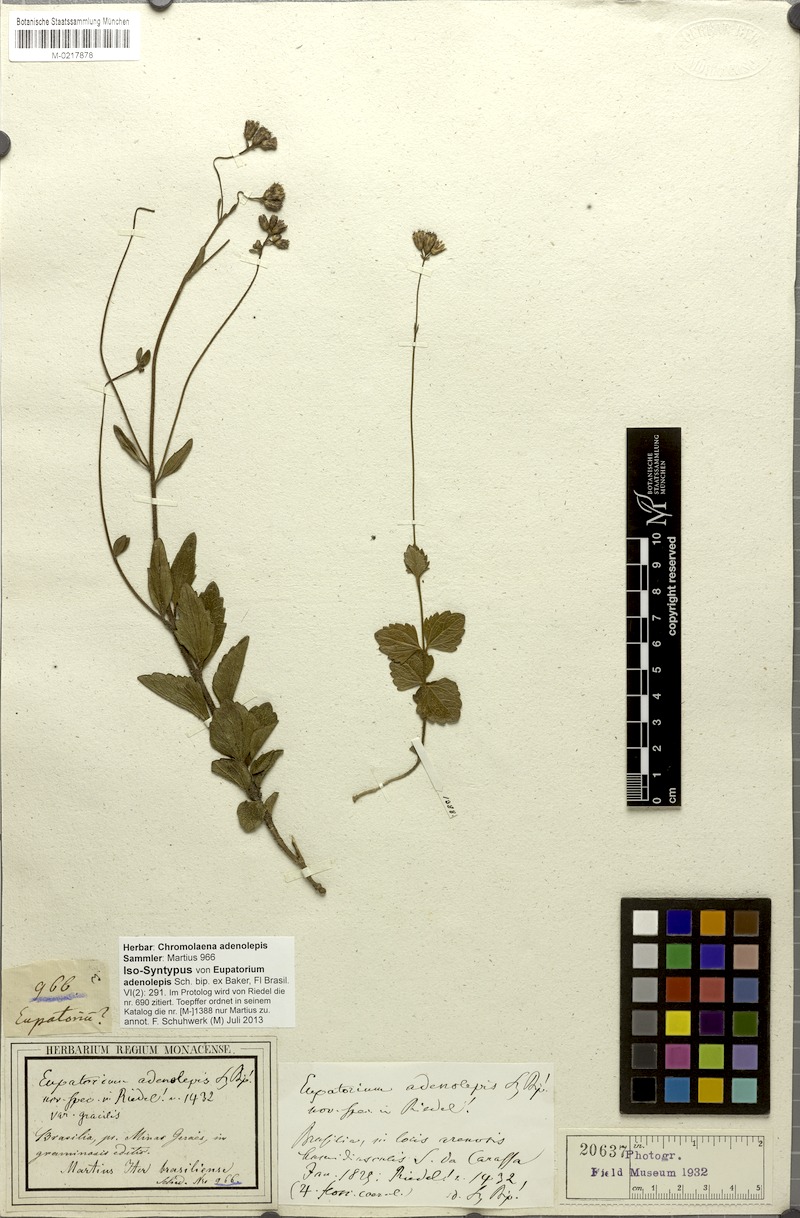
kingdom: Plantae
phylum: Tracheophyta
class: Magnoliopsida
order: Asterales
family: Asteraceae
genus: Chromolaena
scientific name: Chromolaena adenolepis
